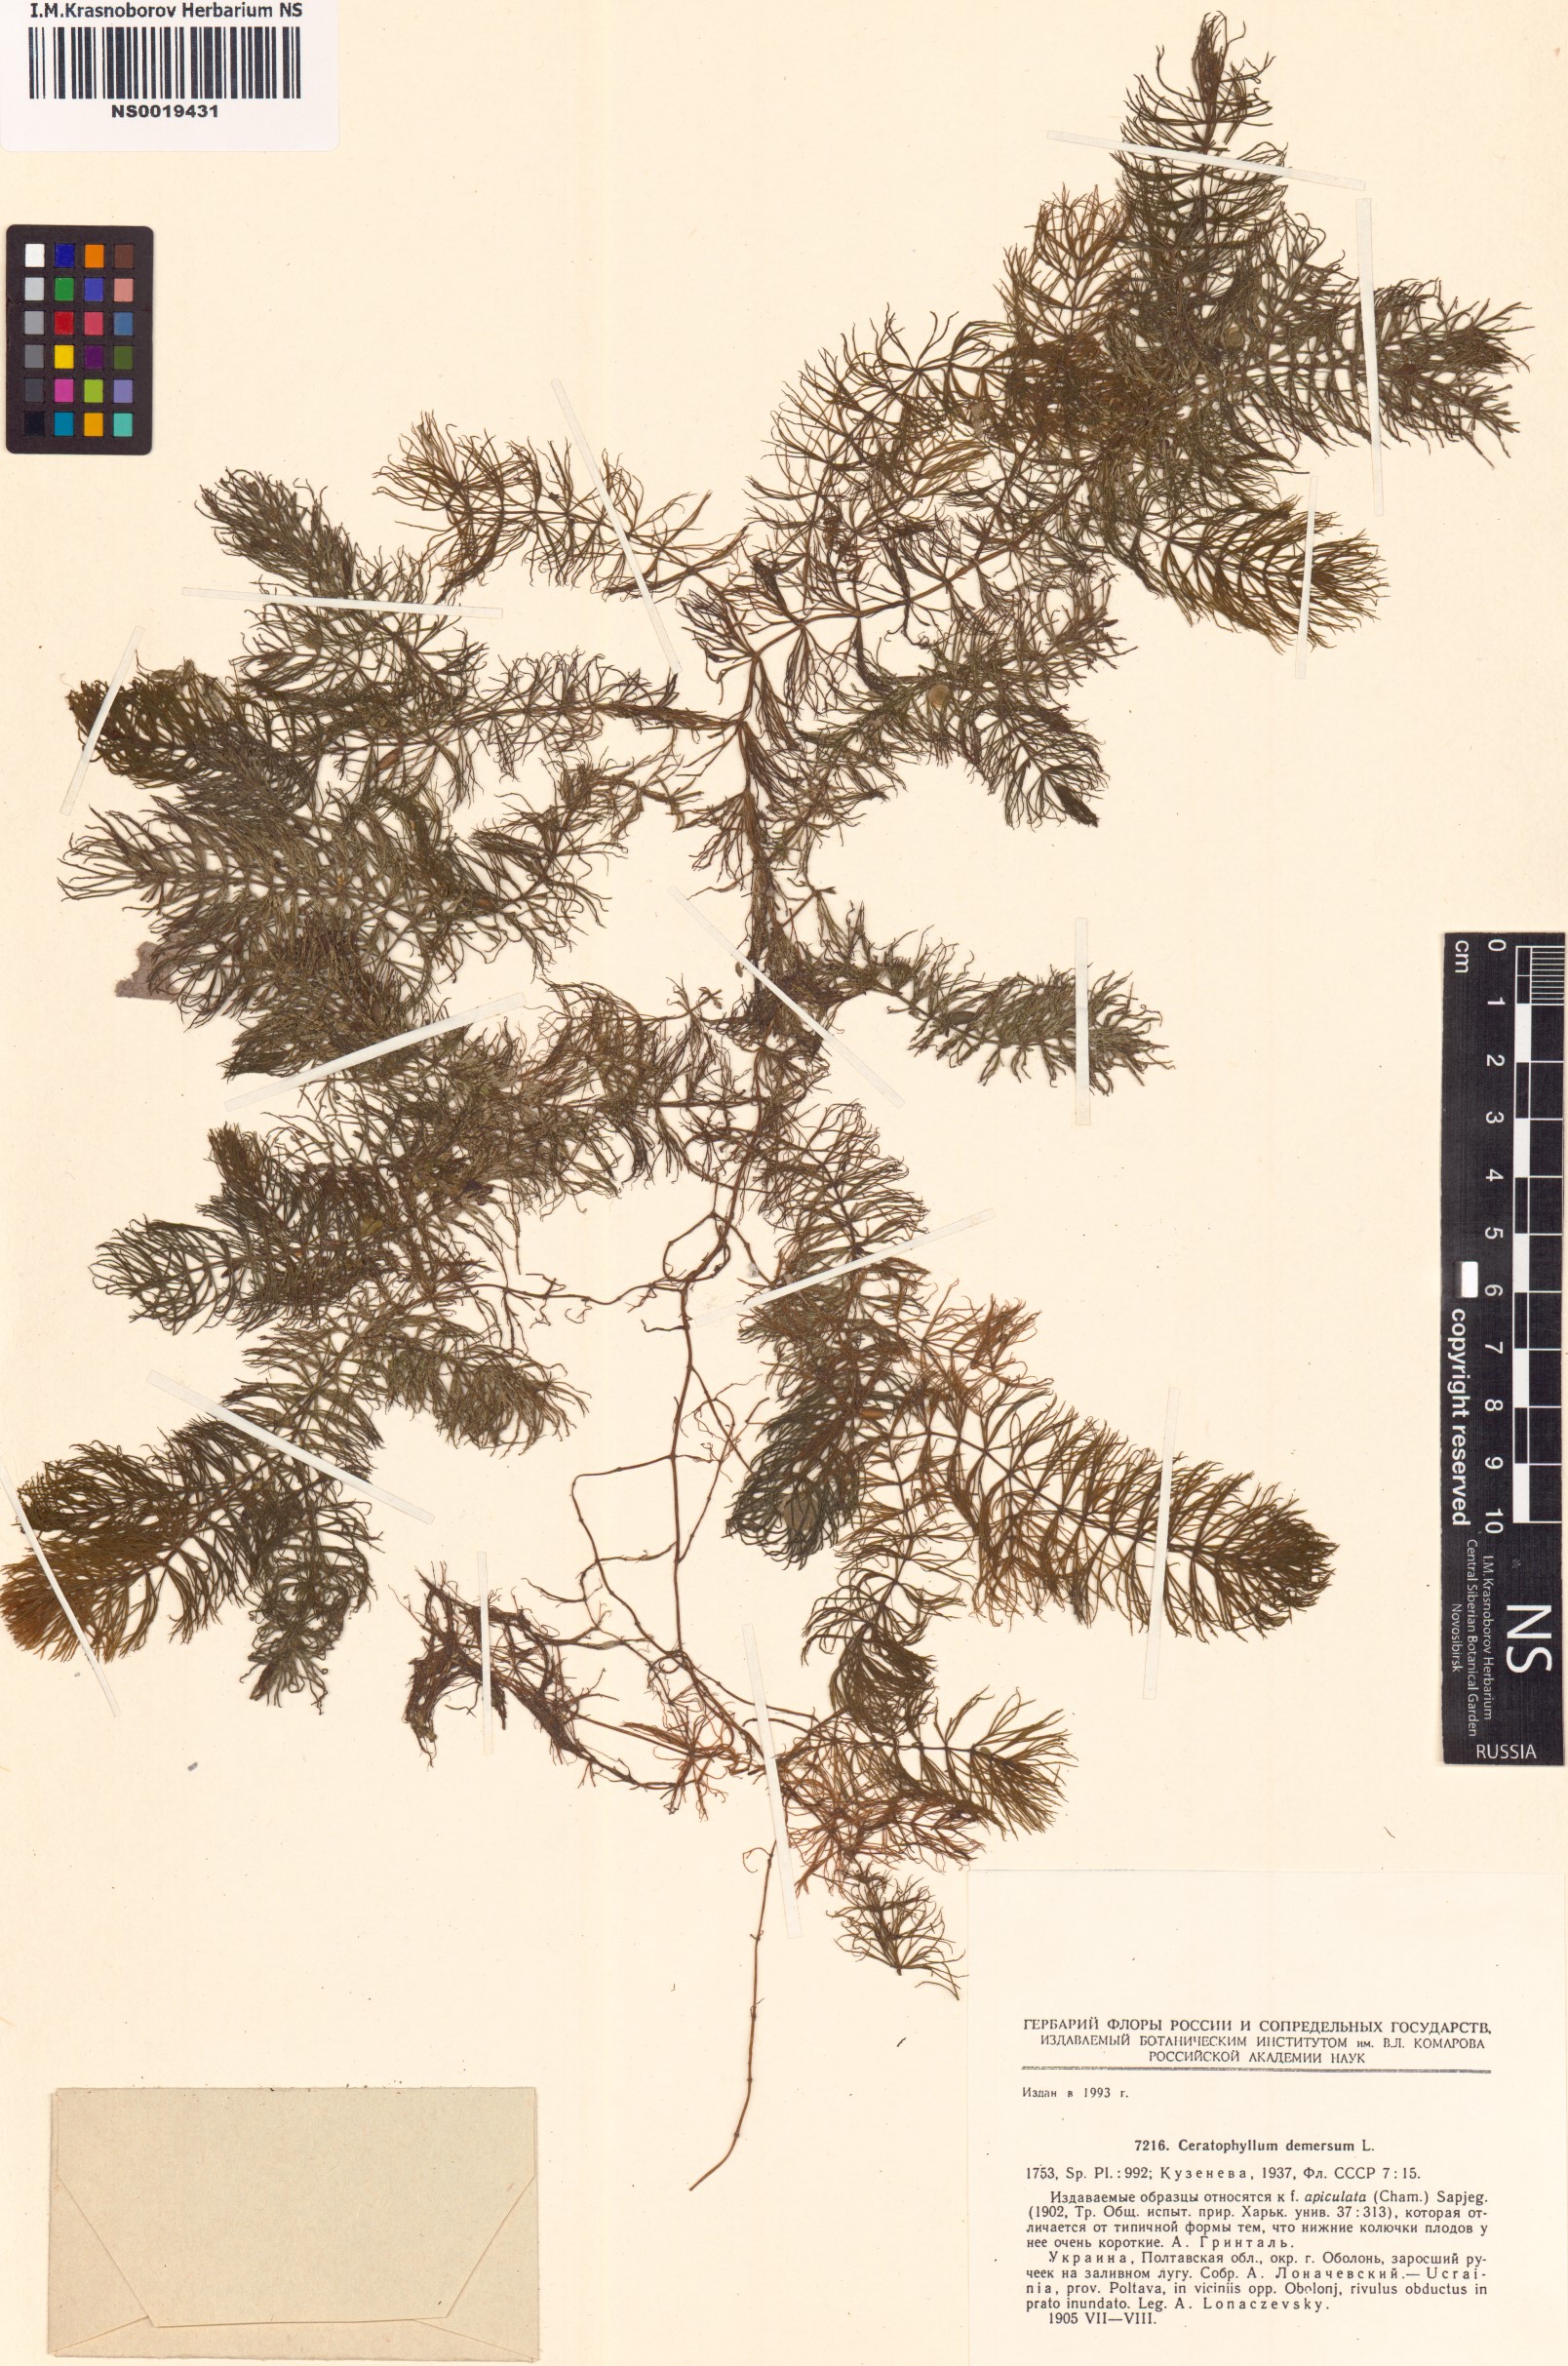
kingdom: Plantae
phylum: Tracheophyta
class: Magnoliopsida
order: Ceratophyllales
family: Ceratophyllaceae
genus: Ceratophyllum
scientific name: Ceratophyllum demersum
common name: Rigid hornwort
